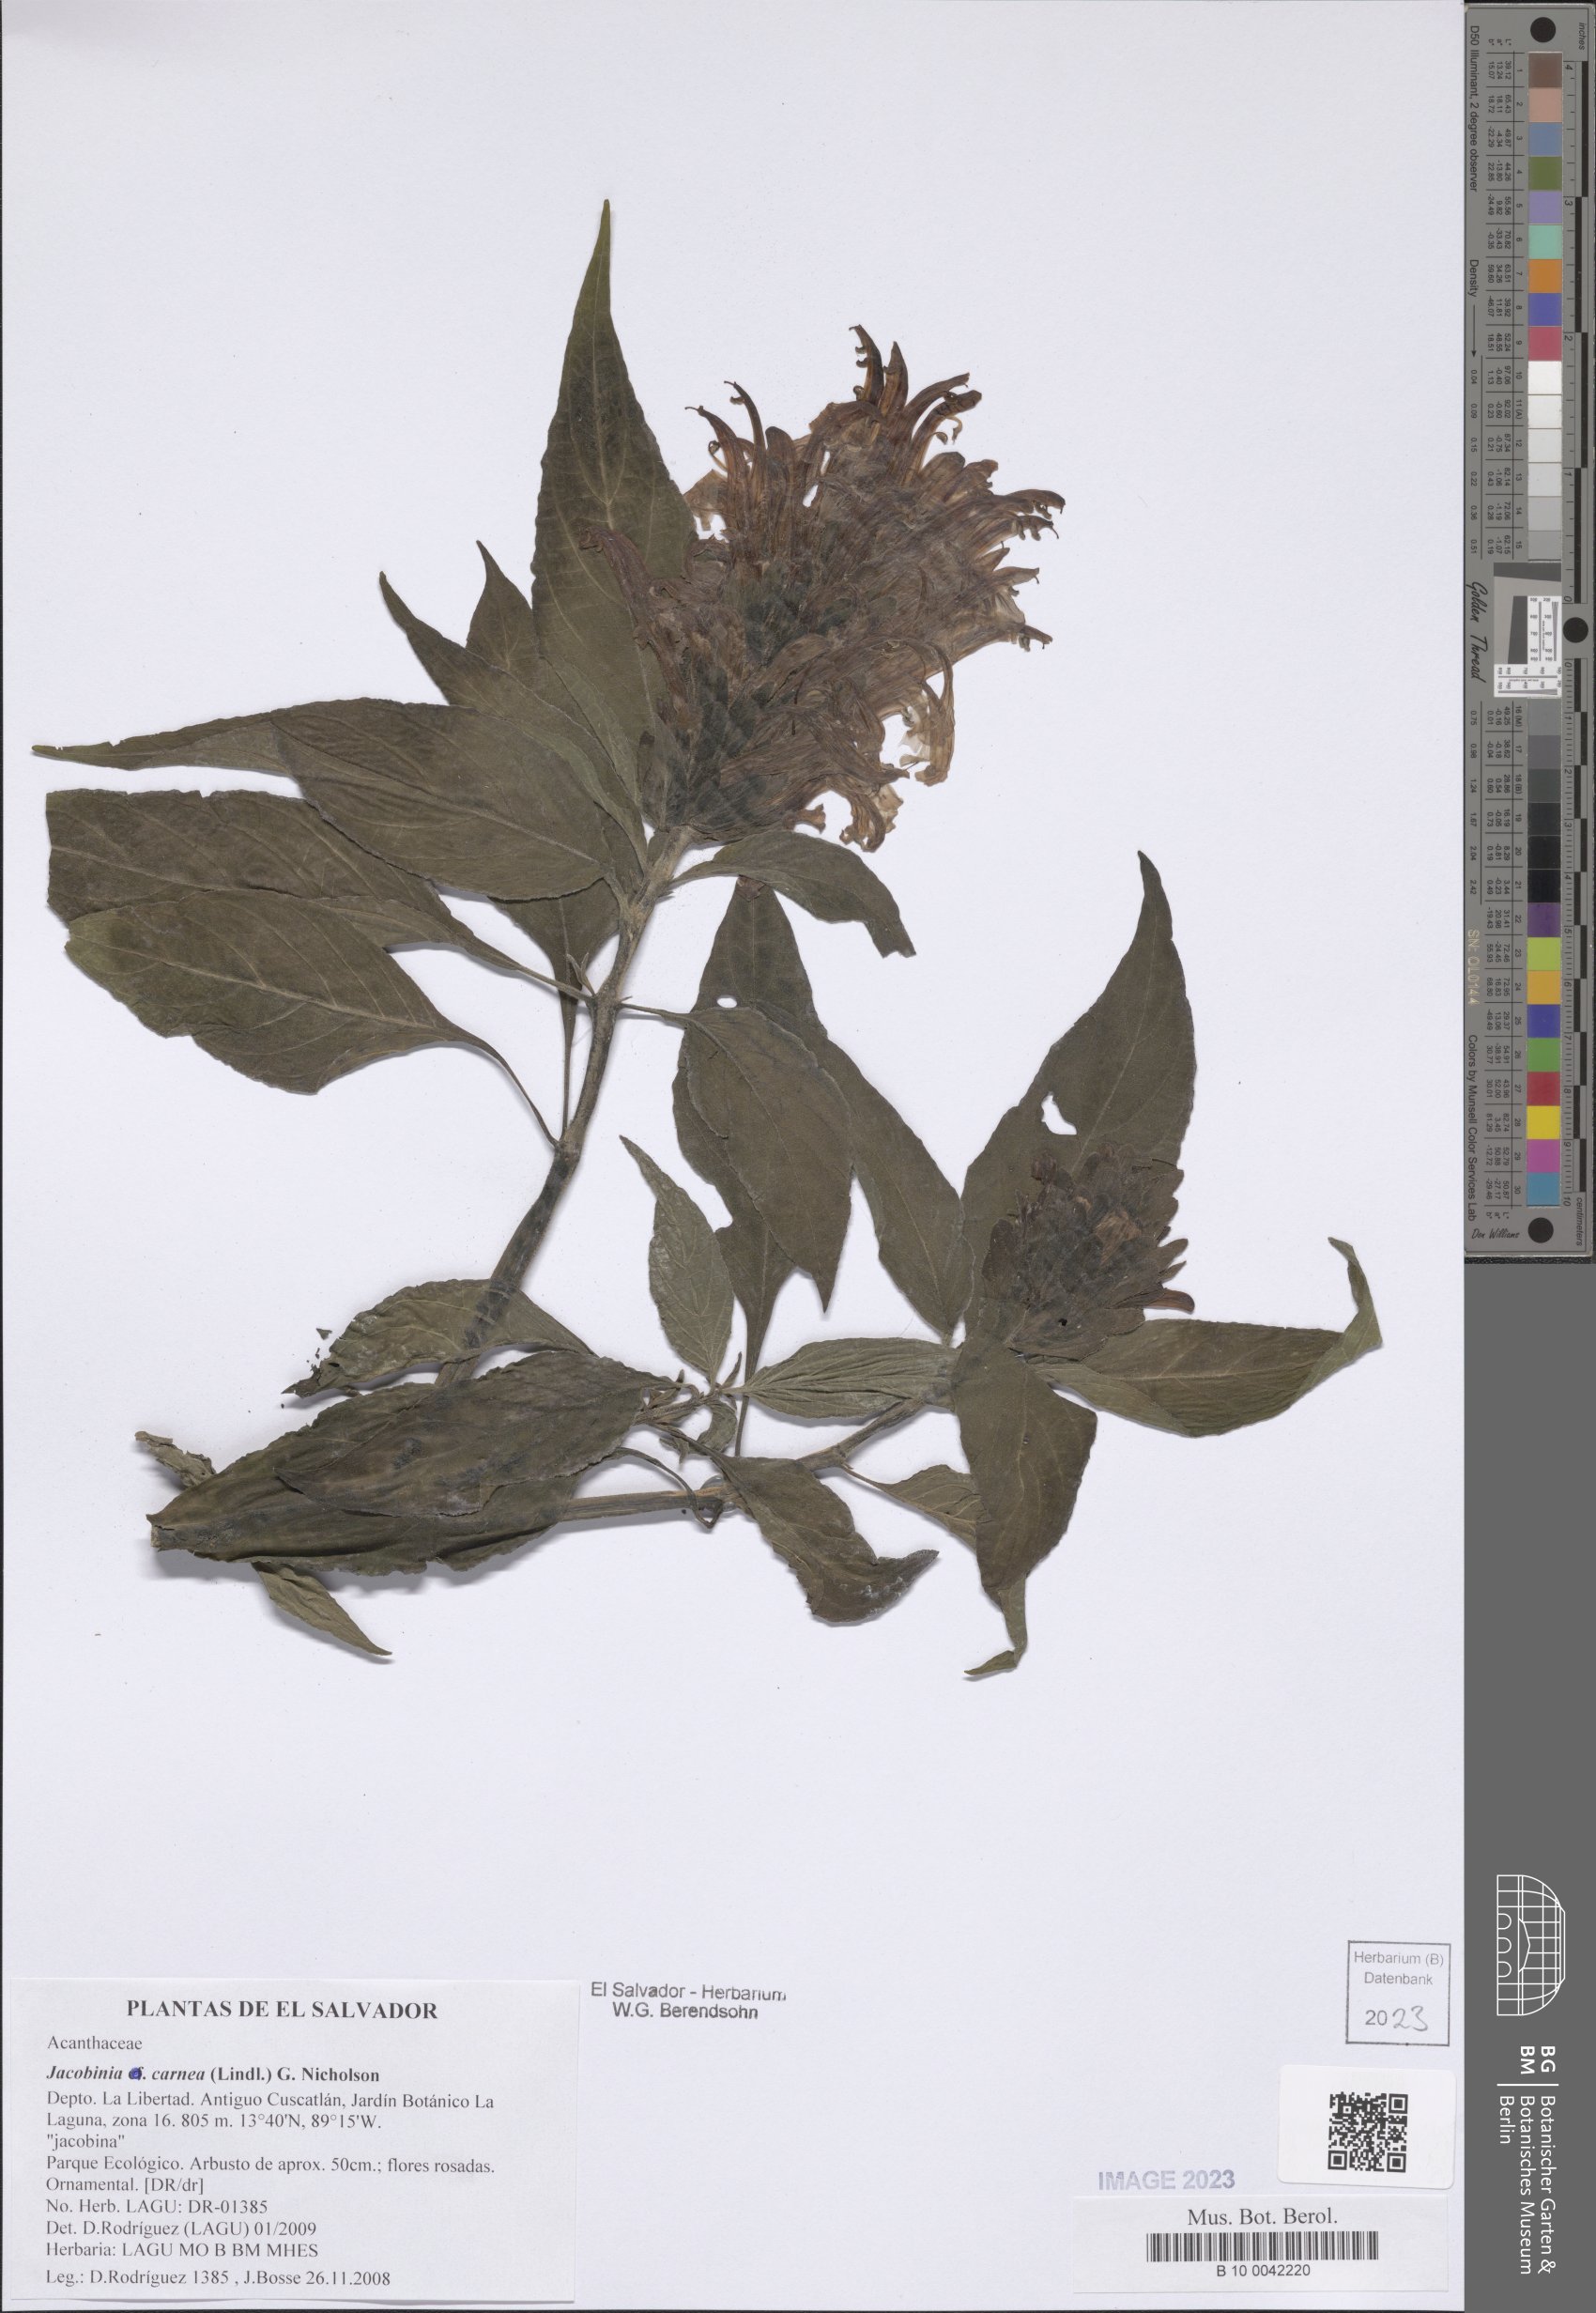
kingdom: Plantae
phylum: Tracheophyta
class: Magnoliopsida
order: Lamiales
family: Acanthaceae
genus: Justicia
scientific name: Justicia carnea
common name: Brazilian-plume
